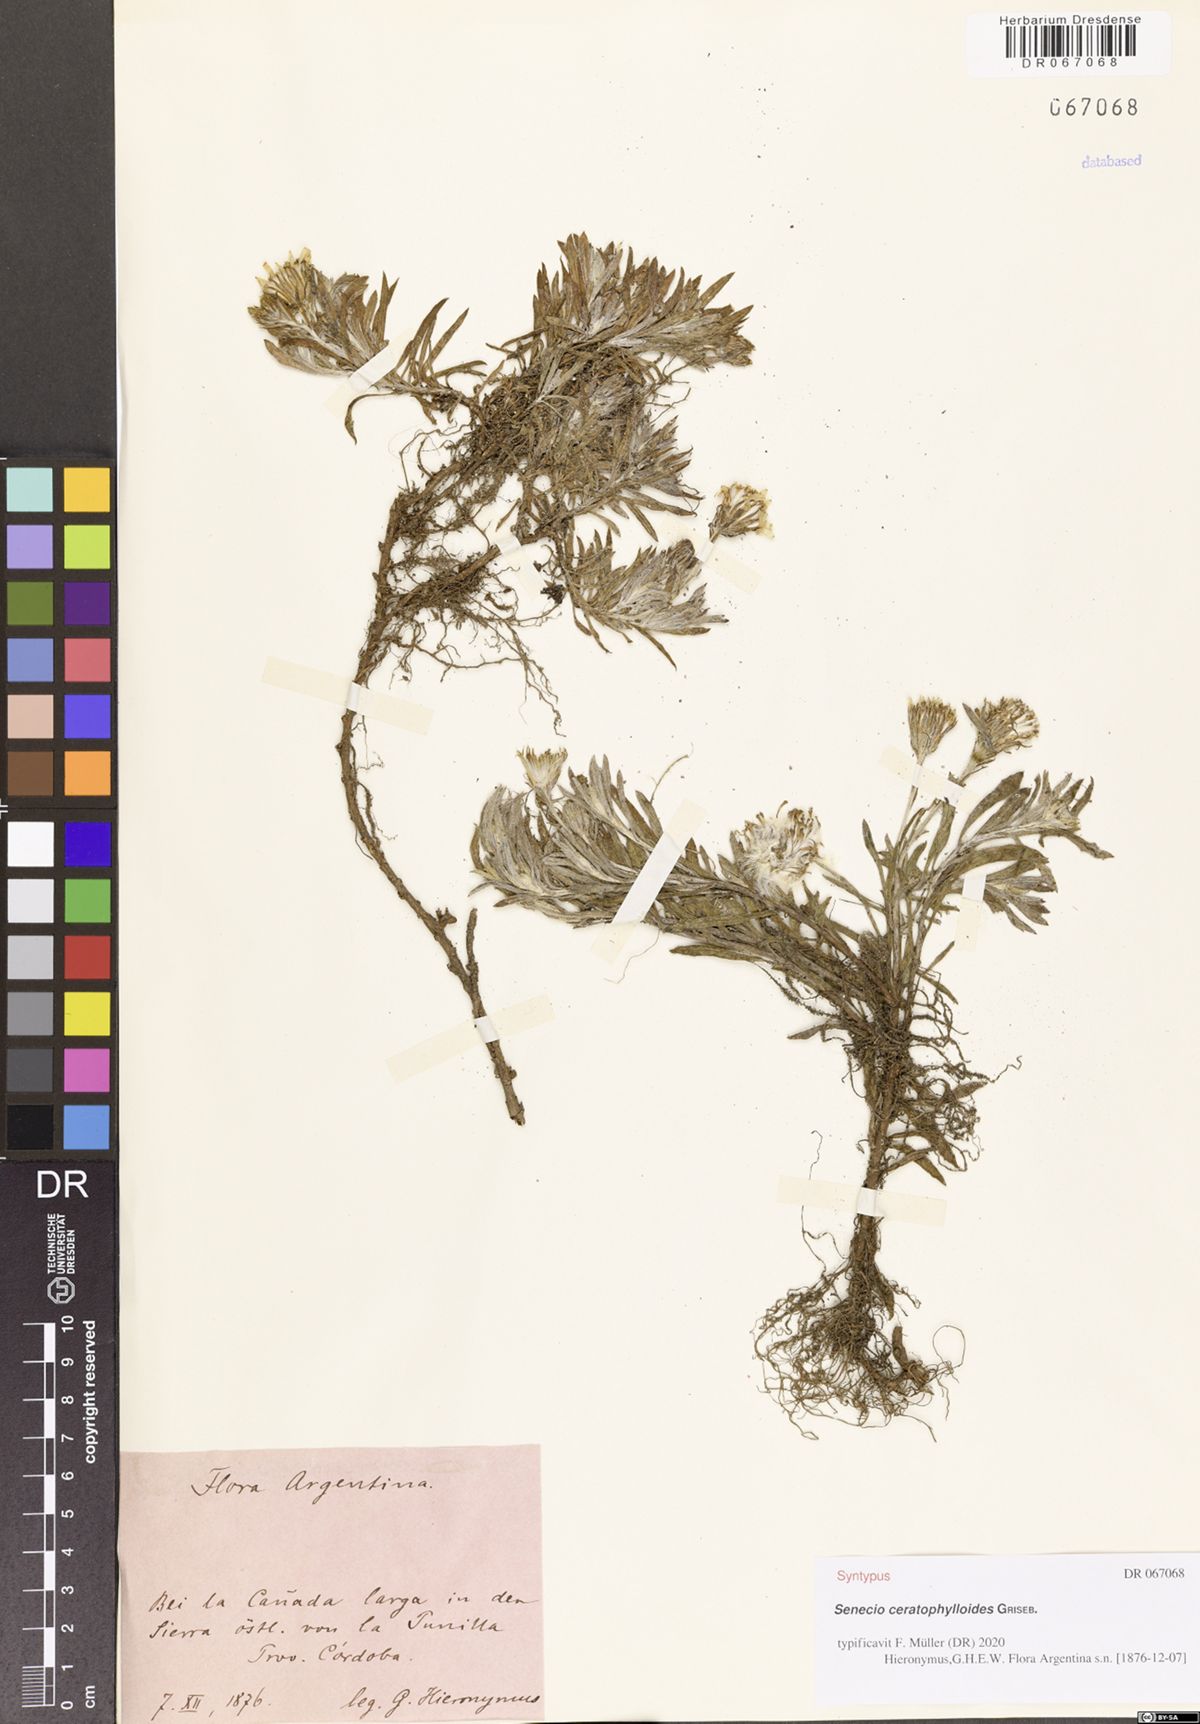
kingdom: Plantae
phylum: Tracheophyta
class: Magnoliopsida
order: Asterales
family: Asteraceae
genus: Senecio
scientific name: Senecio ceratophylloides
